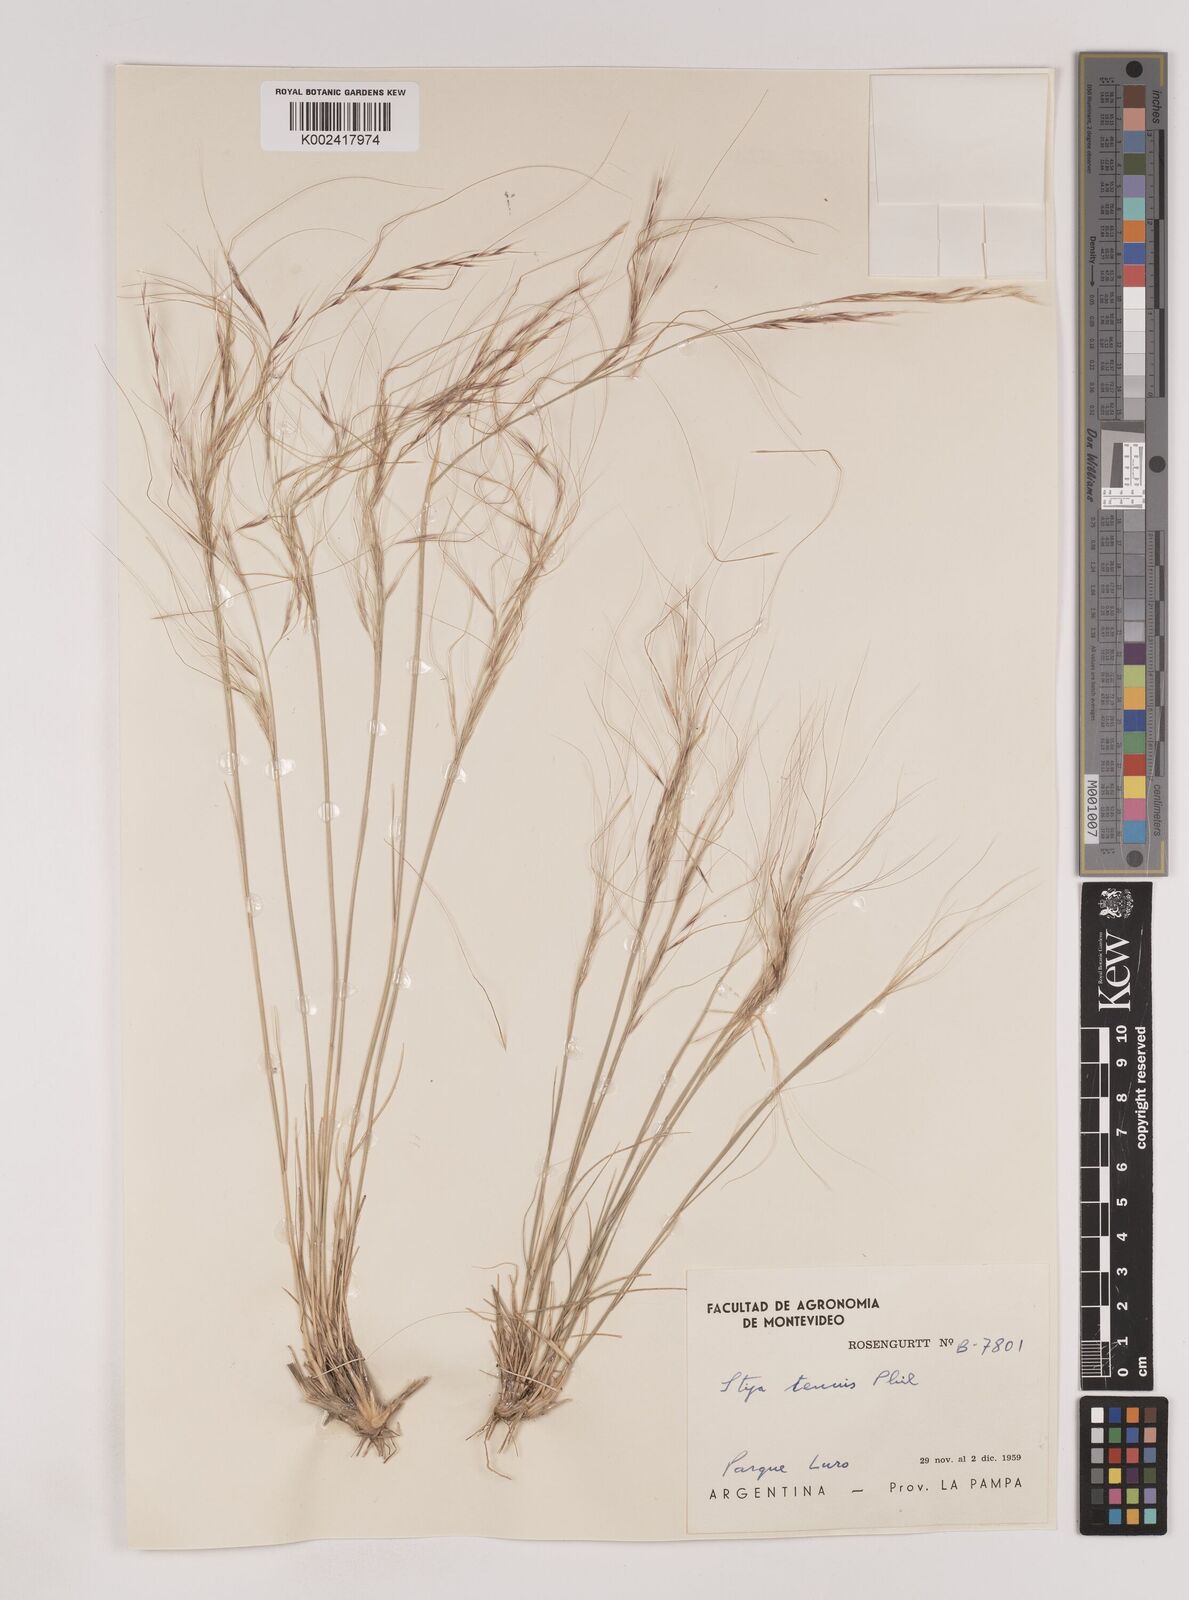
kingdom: Plantae
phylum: Tracheophyta
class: Liliopsida
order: Poales
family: Poaceae
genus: Nassella
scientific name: Nassella tenuis
